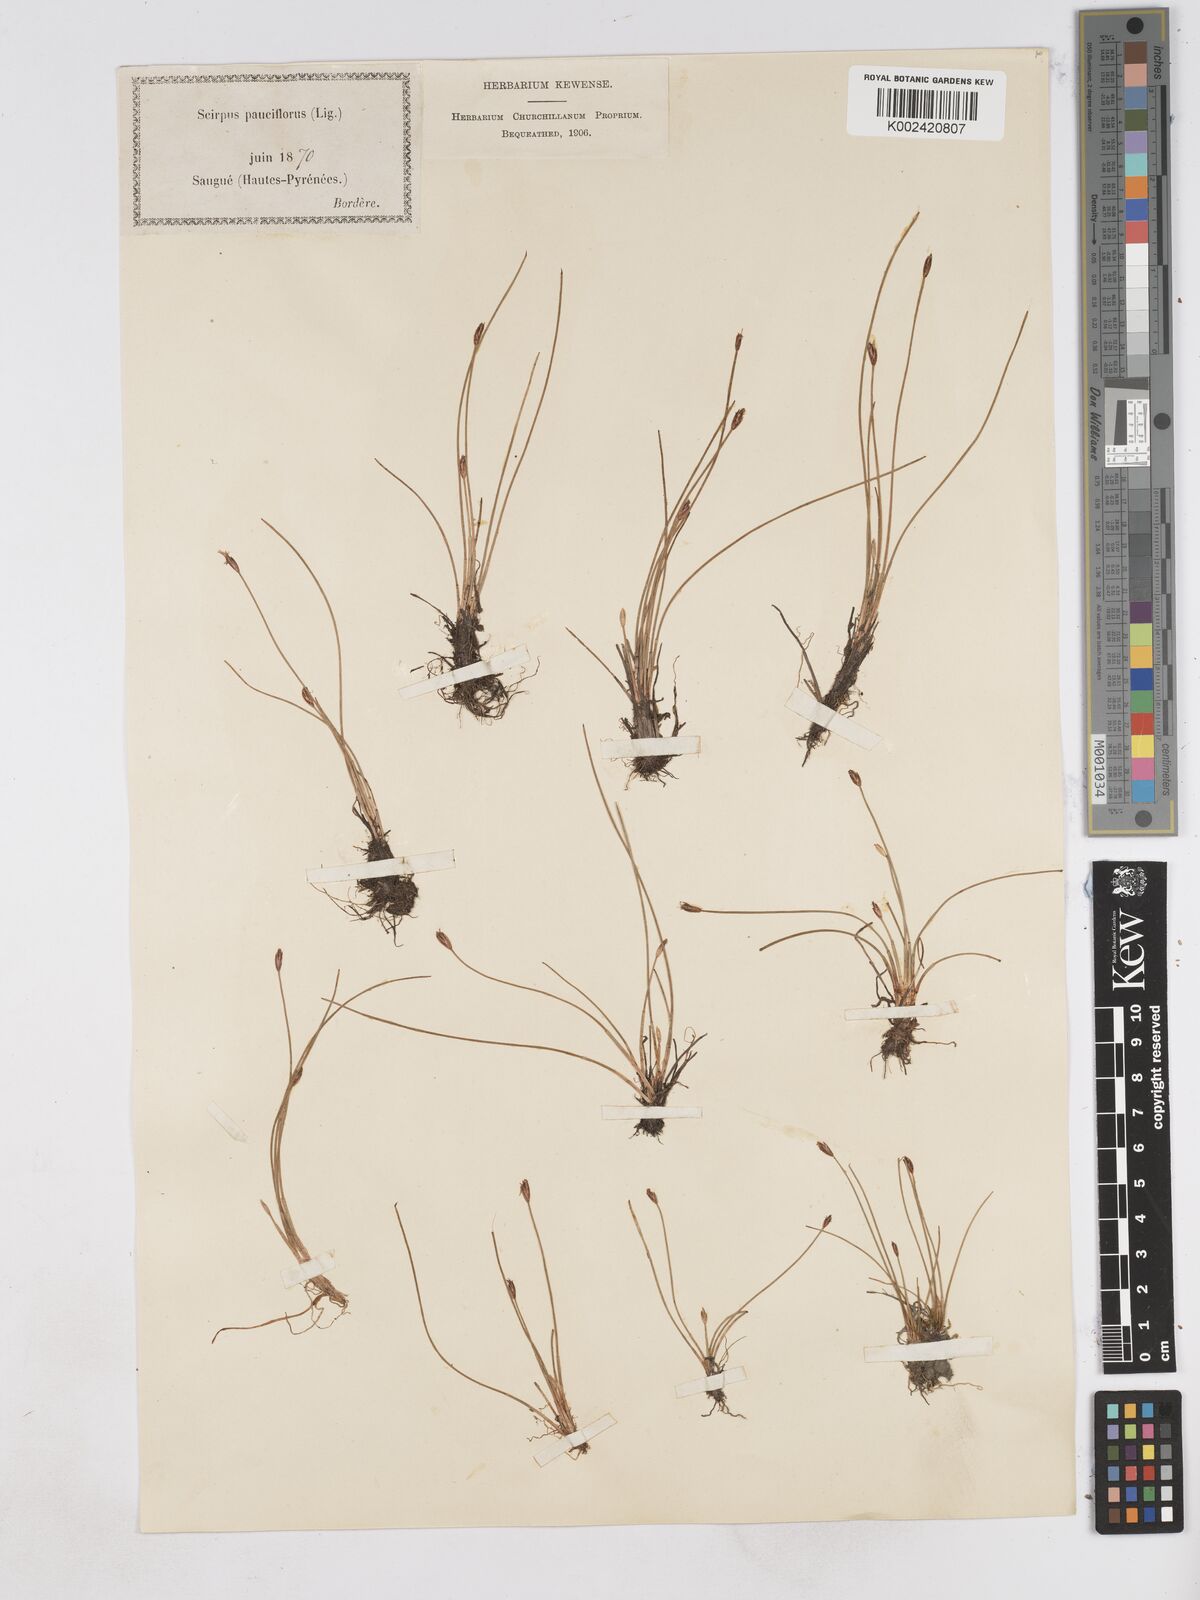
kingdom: Plantae
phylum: Tracheophyta
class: Liliopsida
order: Poales
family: Cyperaceae
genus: Eleocharis
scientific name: Eleocharis quinqueflora
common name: Few-flowered spike-rush
